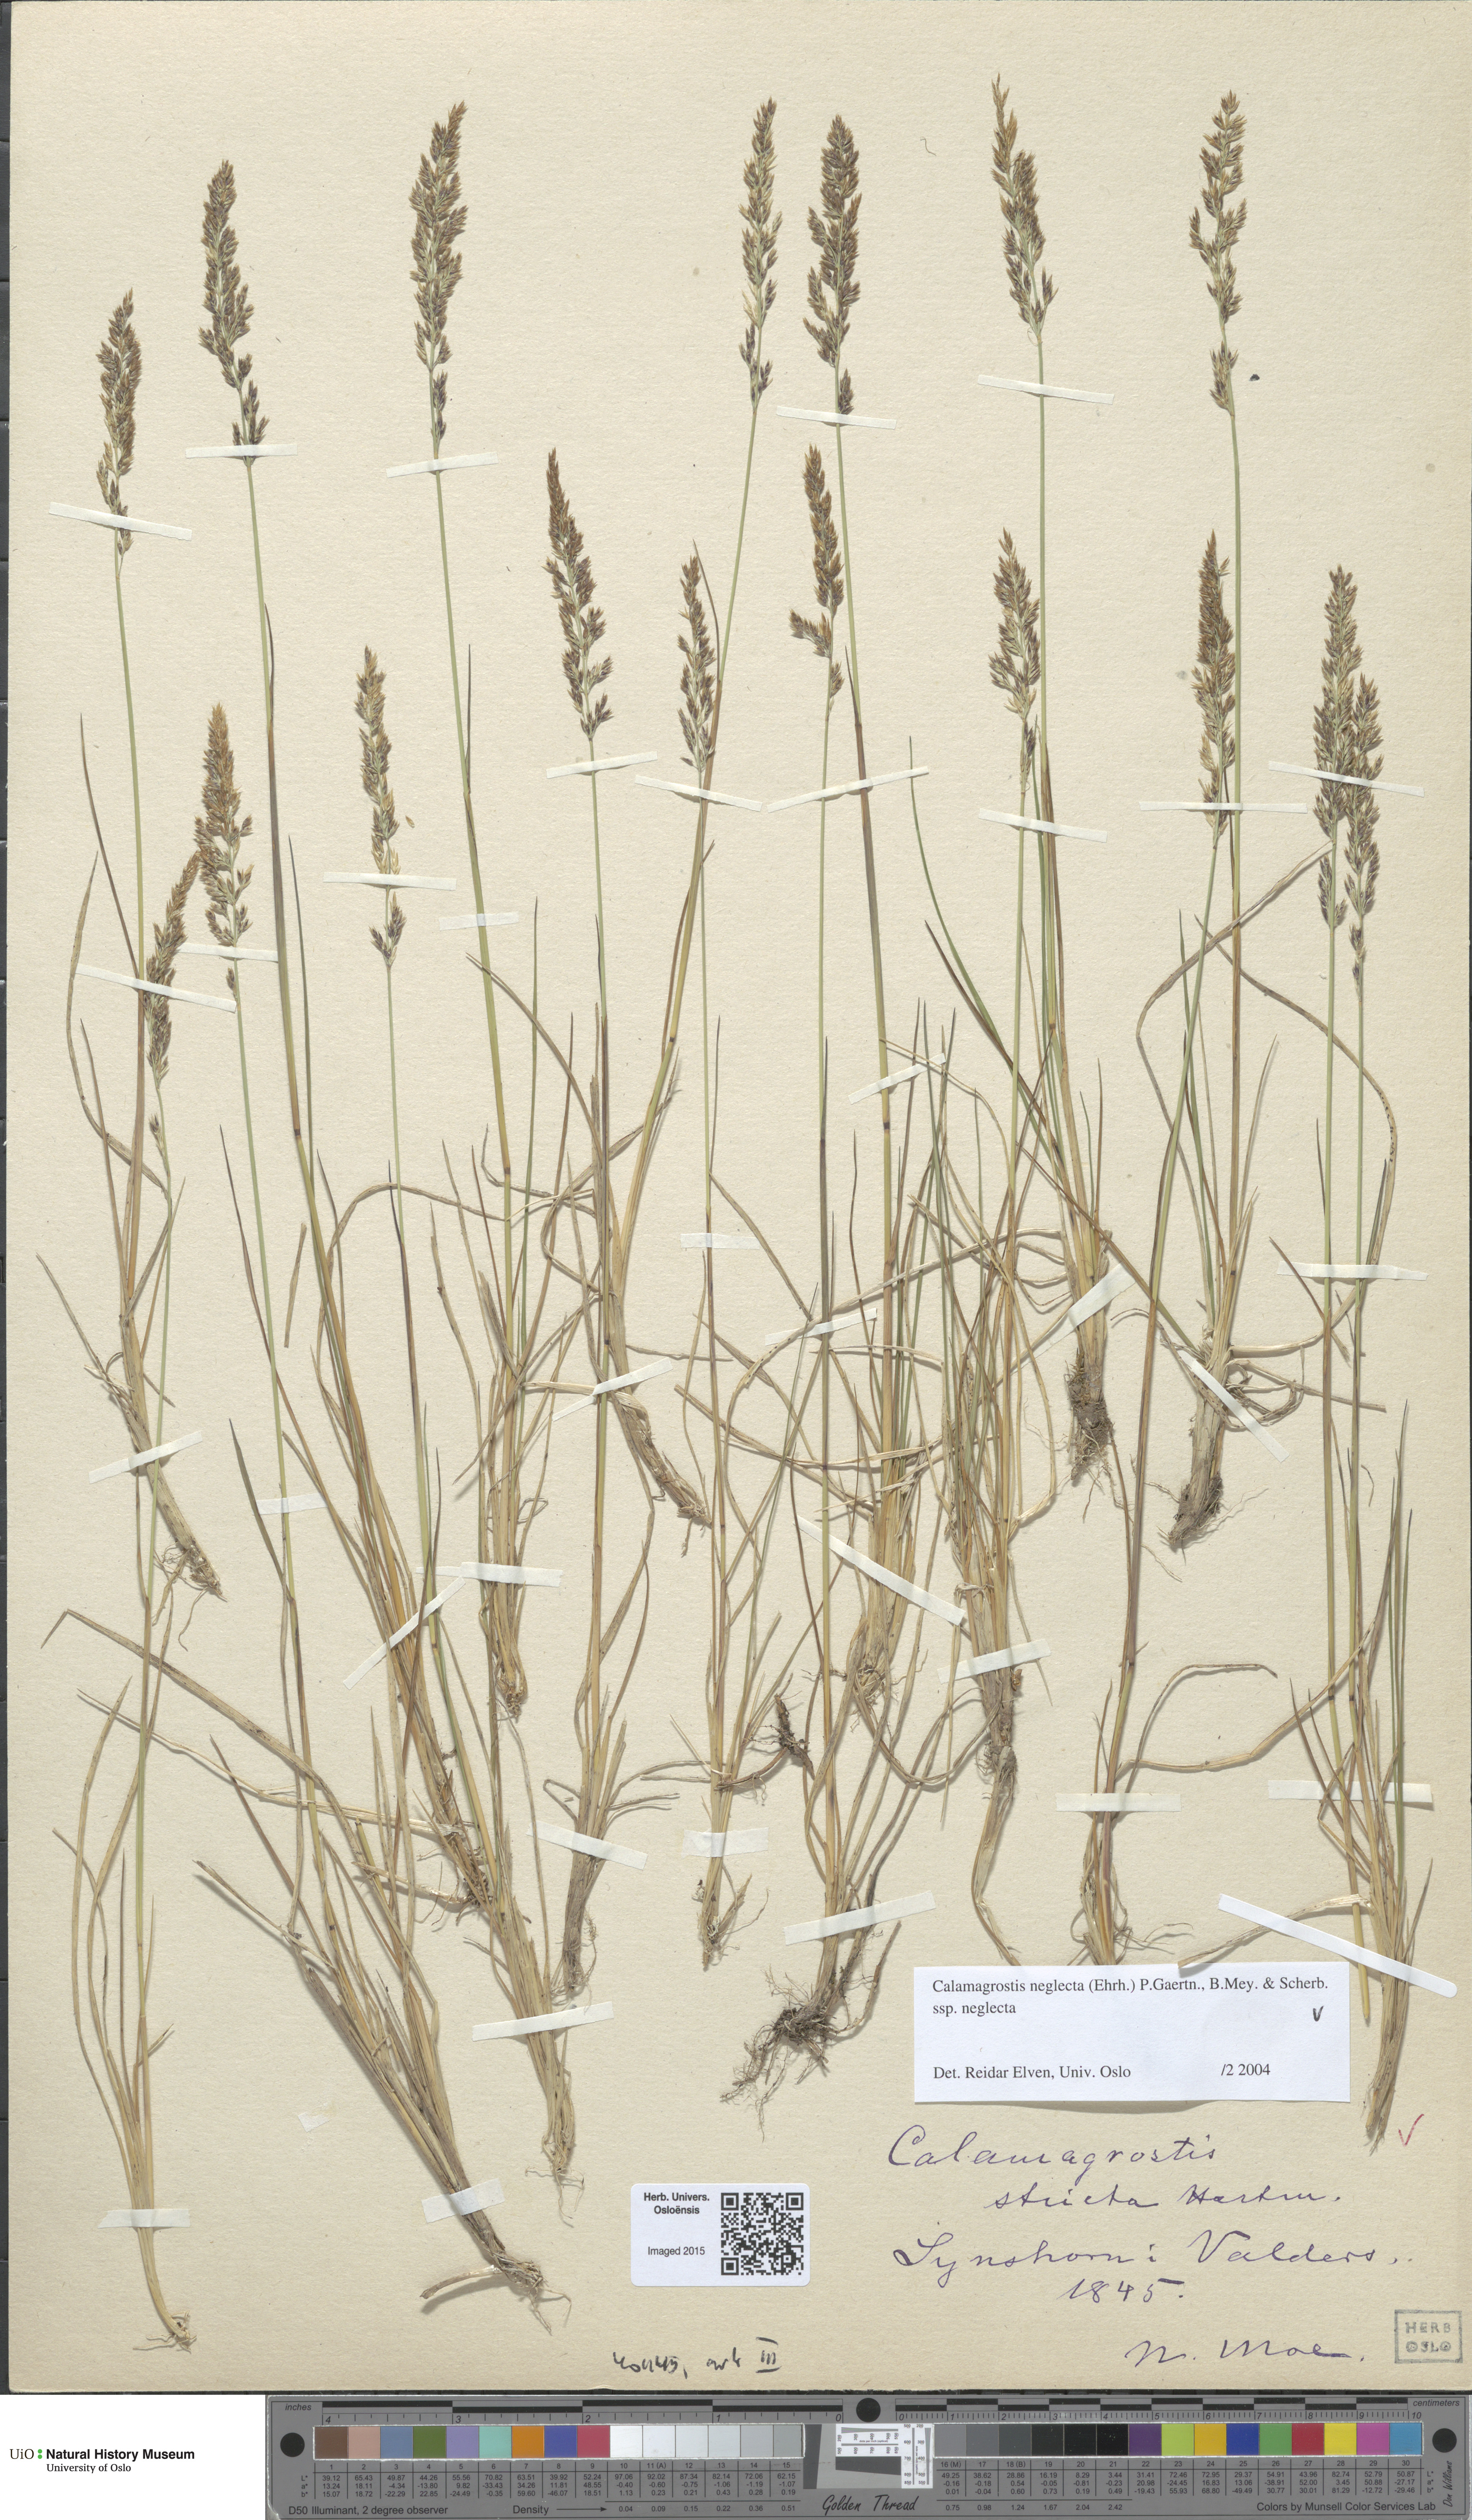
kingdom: Plantae
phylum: Tracheophyta
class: Liliopsida
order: Poales
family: Poaceae
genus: Achnatherum
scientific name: Achnatherum calamagrostis
